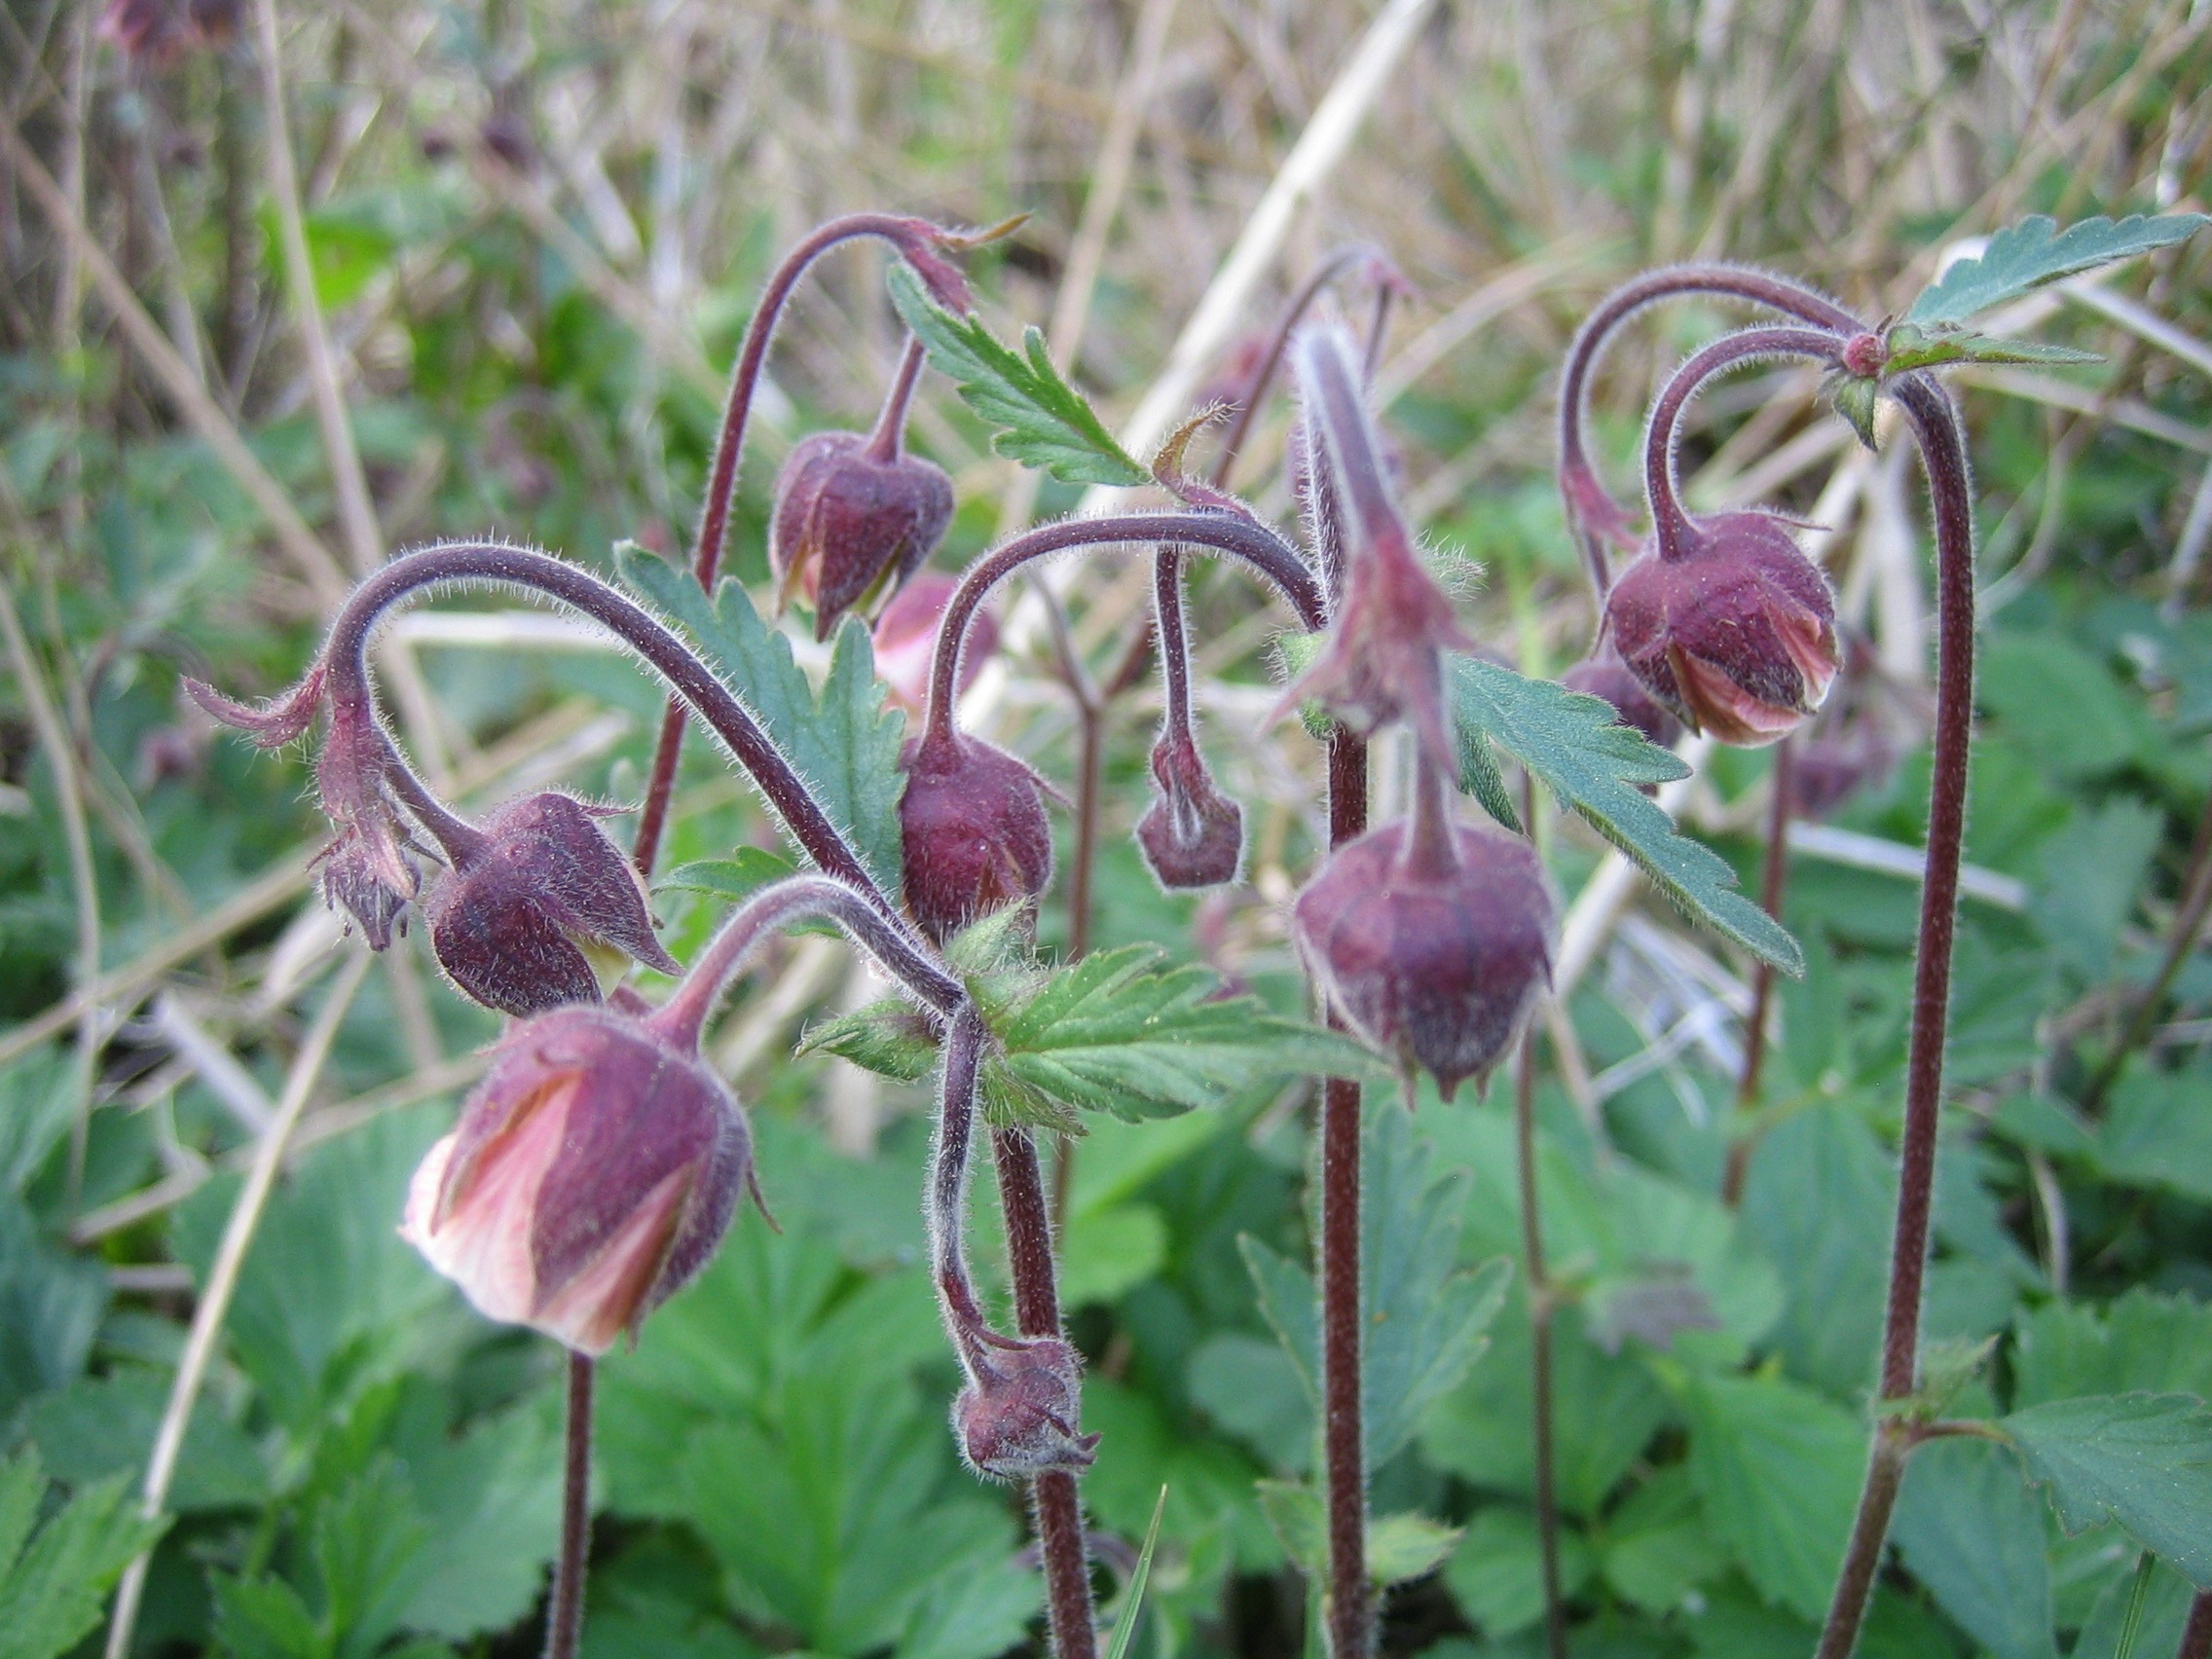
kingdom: Plantae
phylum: Tracheophyta
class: Magnoliopsida
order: Rosales
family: Rosaceae
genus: Geum
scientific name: Geum rivale
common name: Eng-nellikerod
